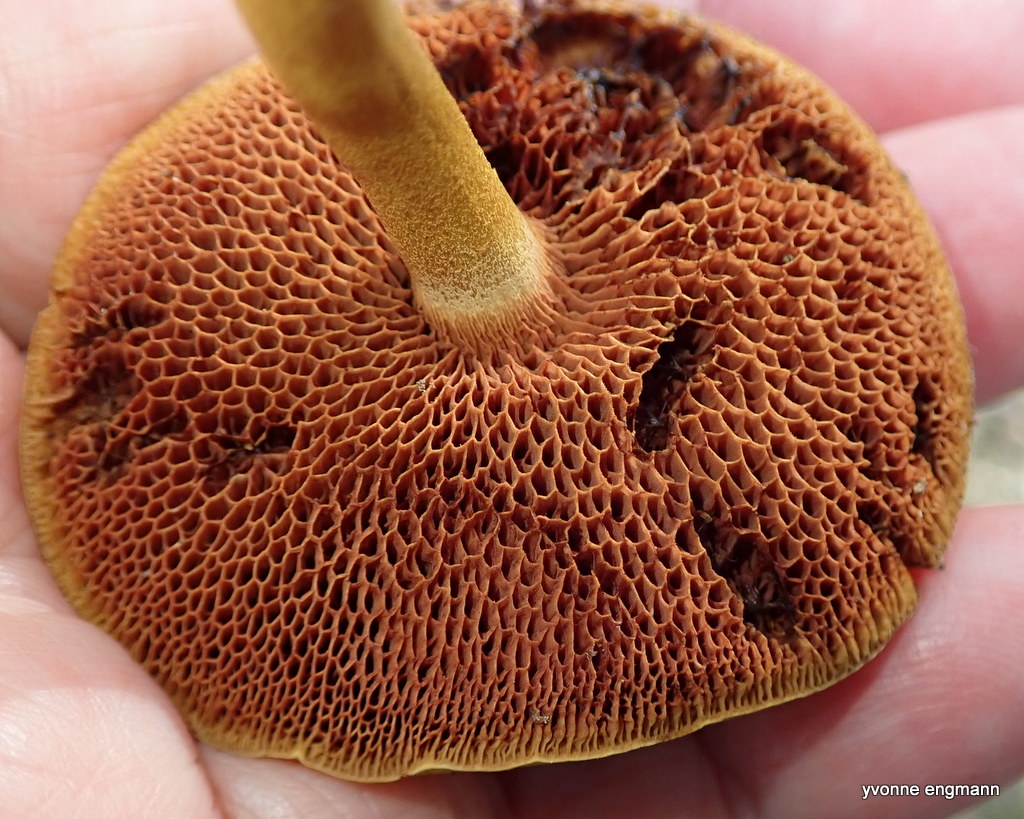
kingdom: Fungi
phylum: Basidiomycota
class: Agaricomycetes
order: Boletales
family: Boletaceae
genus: Chalciporus
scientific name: Chalciporus piperatus
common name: peberrørhat
